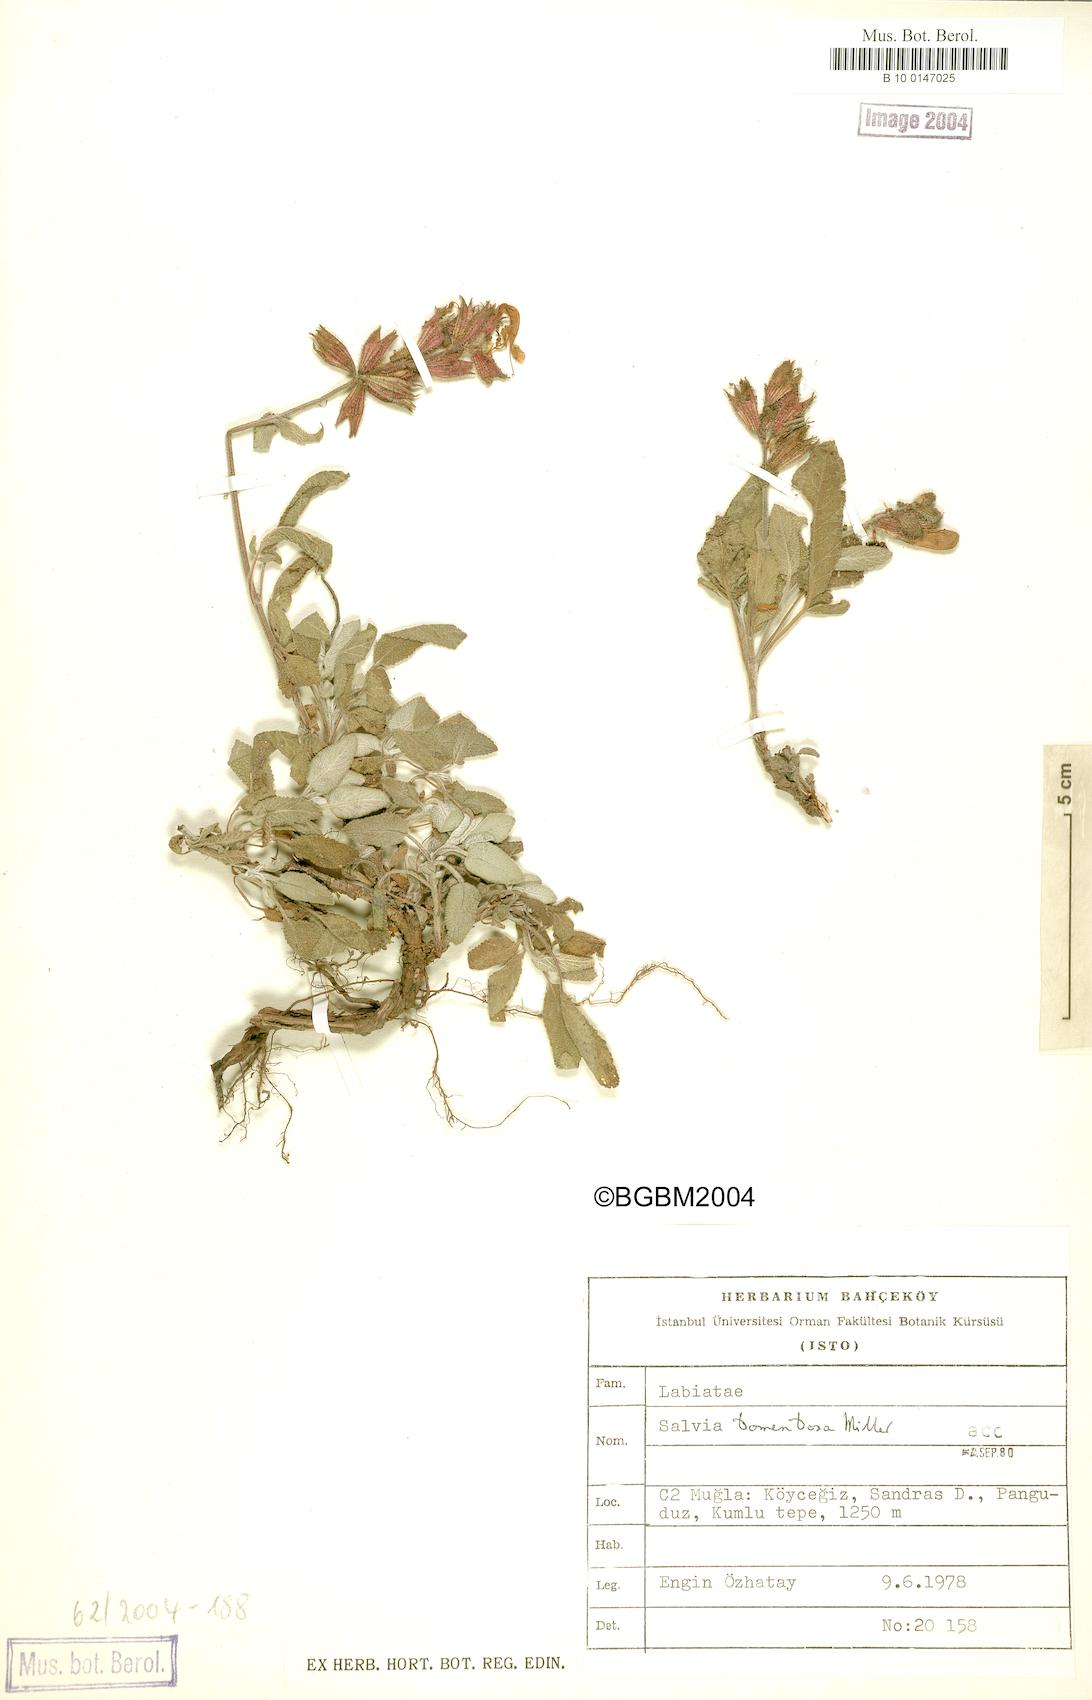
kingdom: Plantae
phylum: Tracheophyta
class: Magnoliopsida
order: Lamiales
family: Lamiaceae
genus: Salvia
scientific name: Salvia tomentosa
